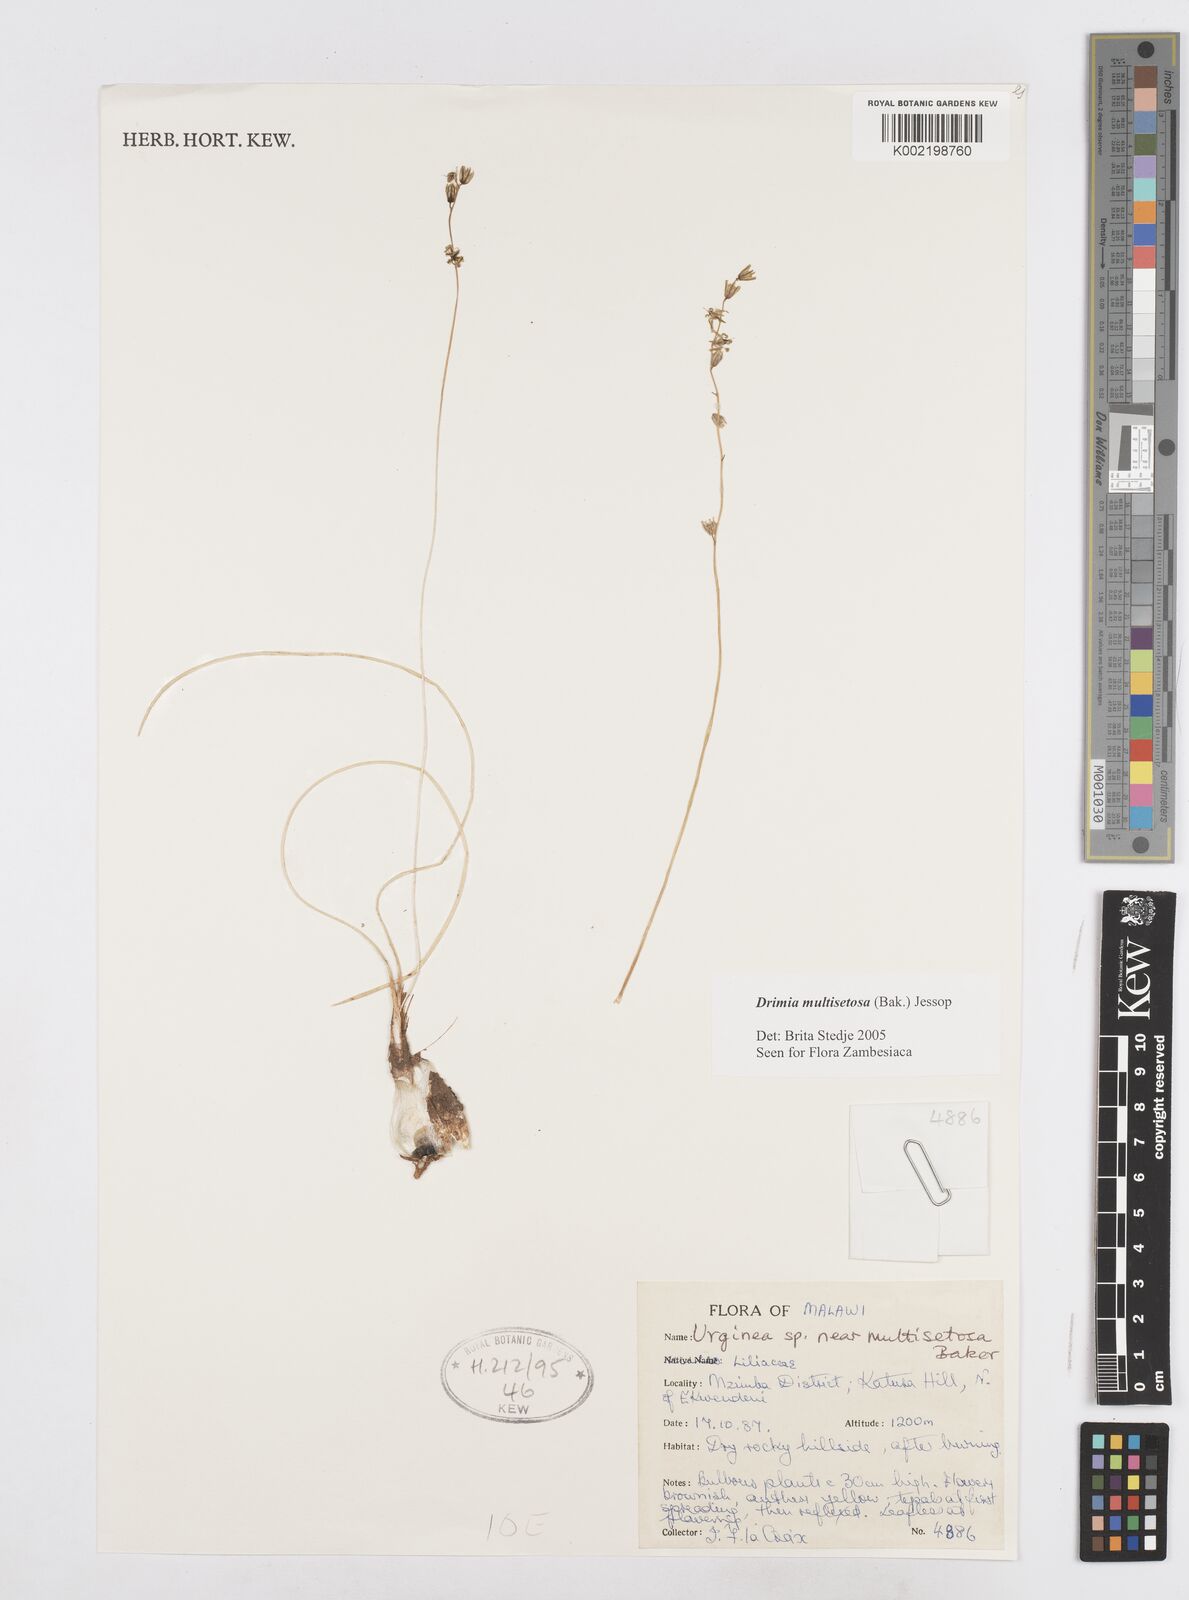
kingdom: Plantae
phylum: Tracheophyta
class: Liliopsida
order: Asparagales
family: Asparagaceae
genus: Drimia
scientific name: Drimia multisetosa
